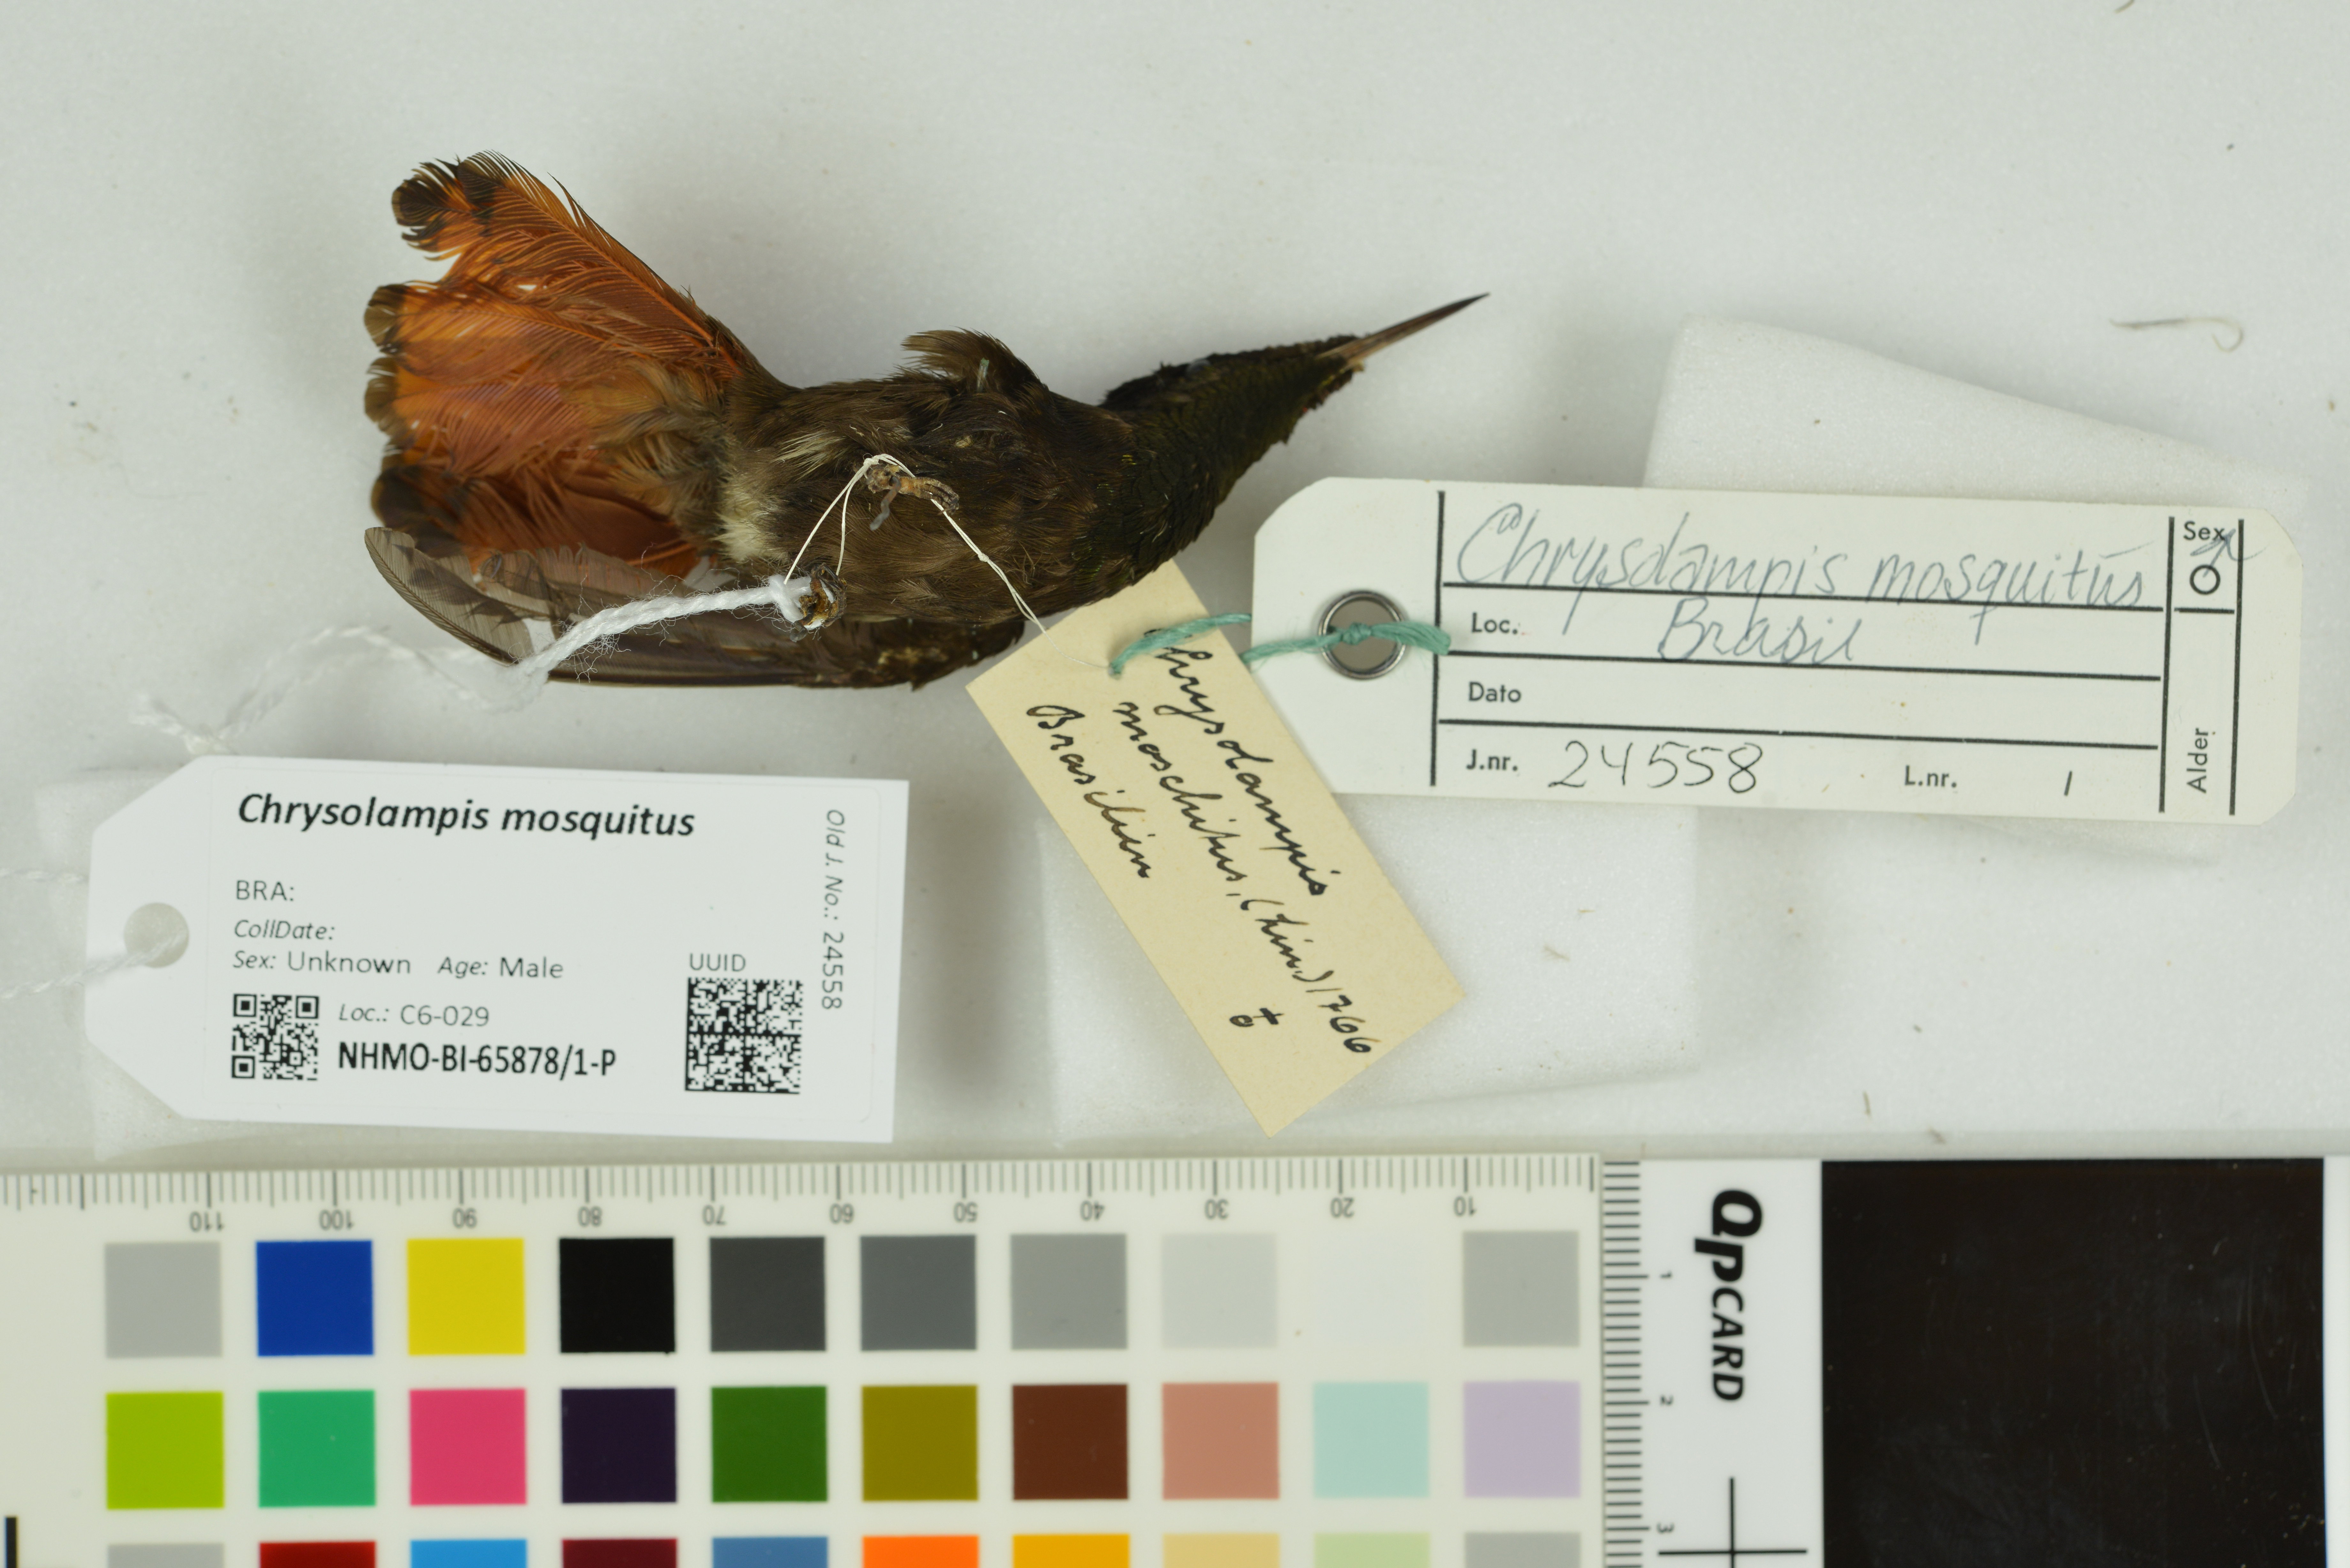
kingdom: Animalia
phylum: Chordata
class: Aves
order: Apodiformes
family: Trochilidae
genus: Chrysolampis
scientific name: Chrysolampis mosquitus
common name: Ruby-topaz hummingbird
